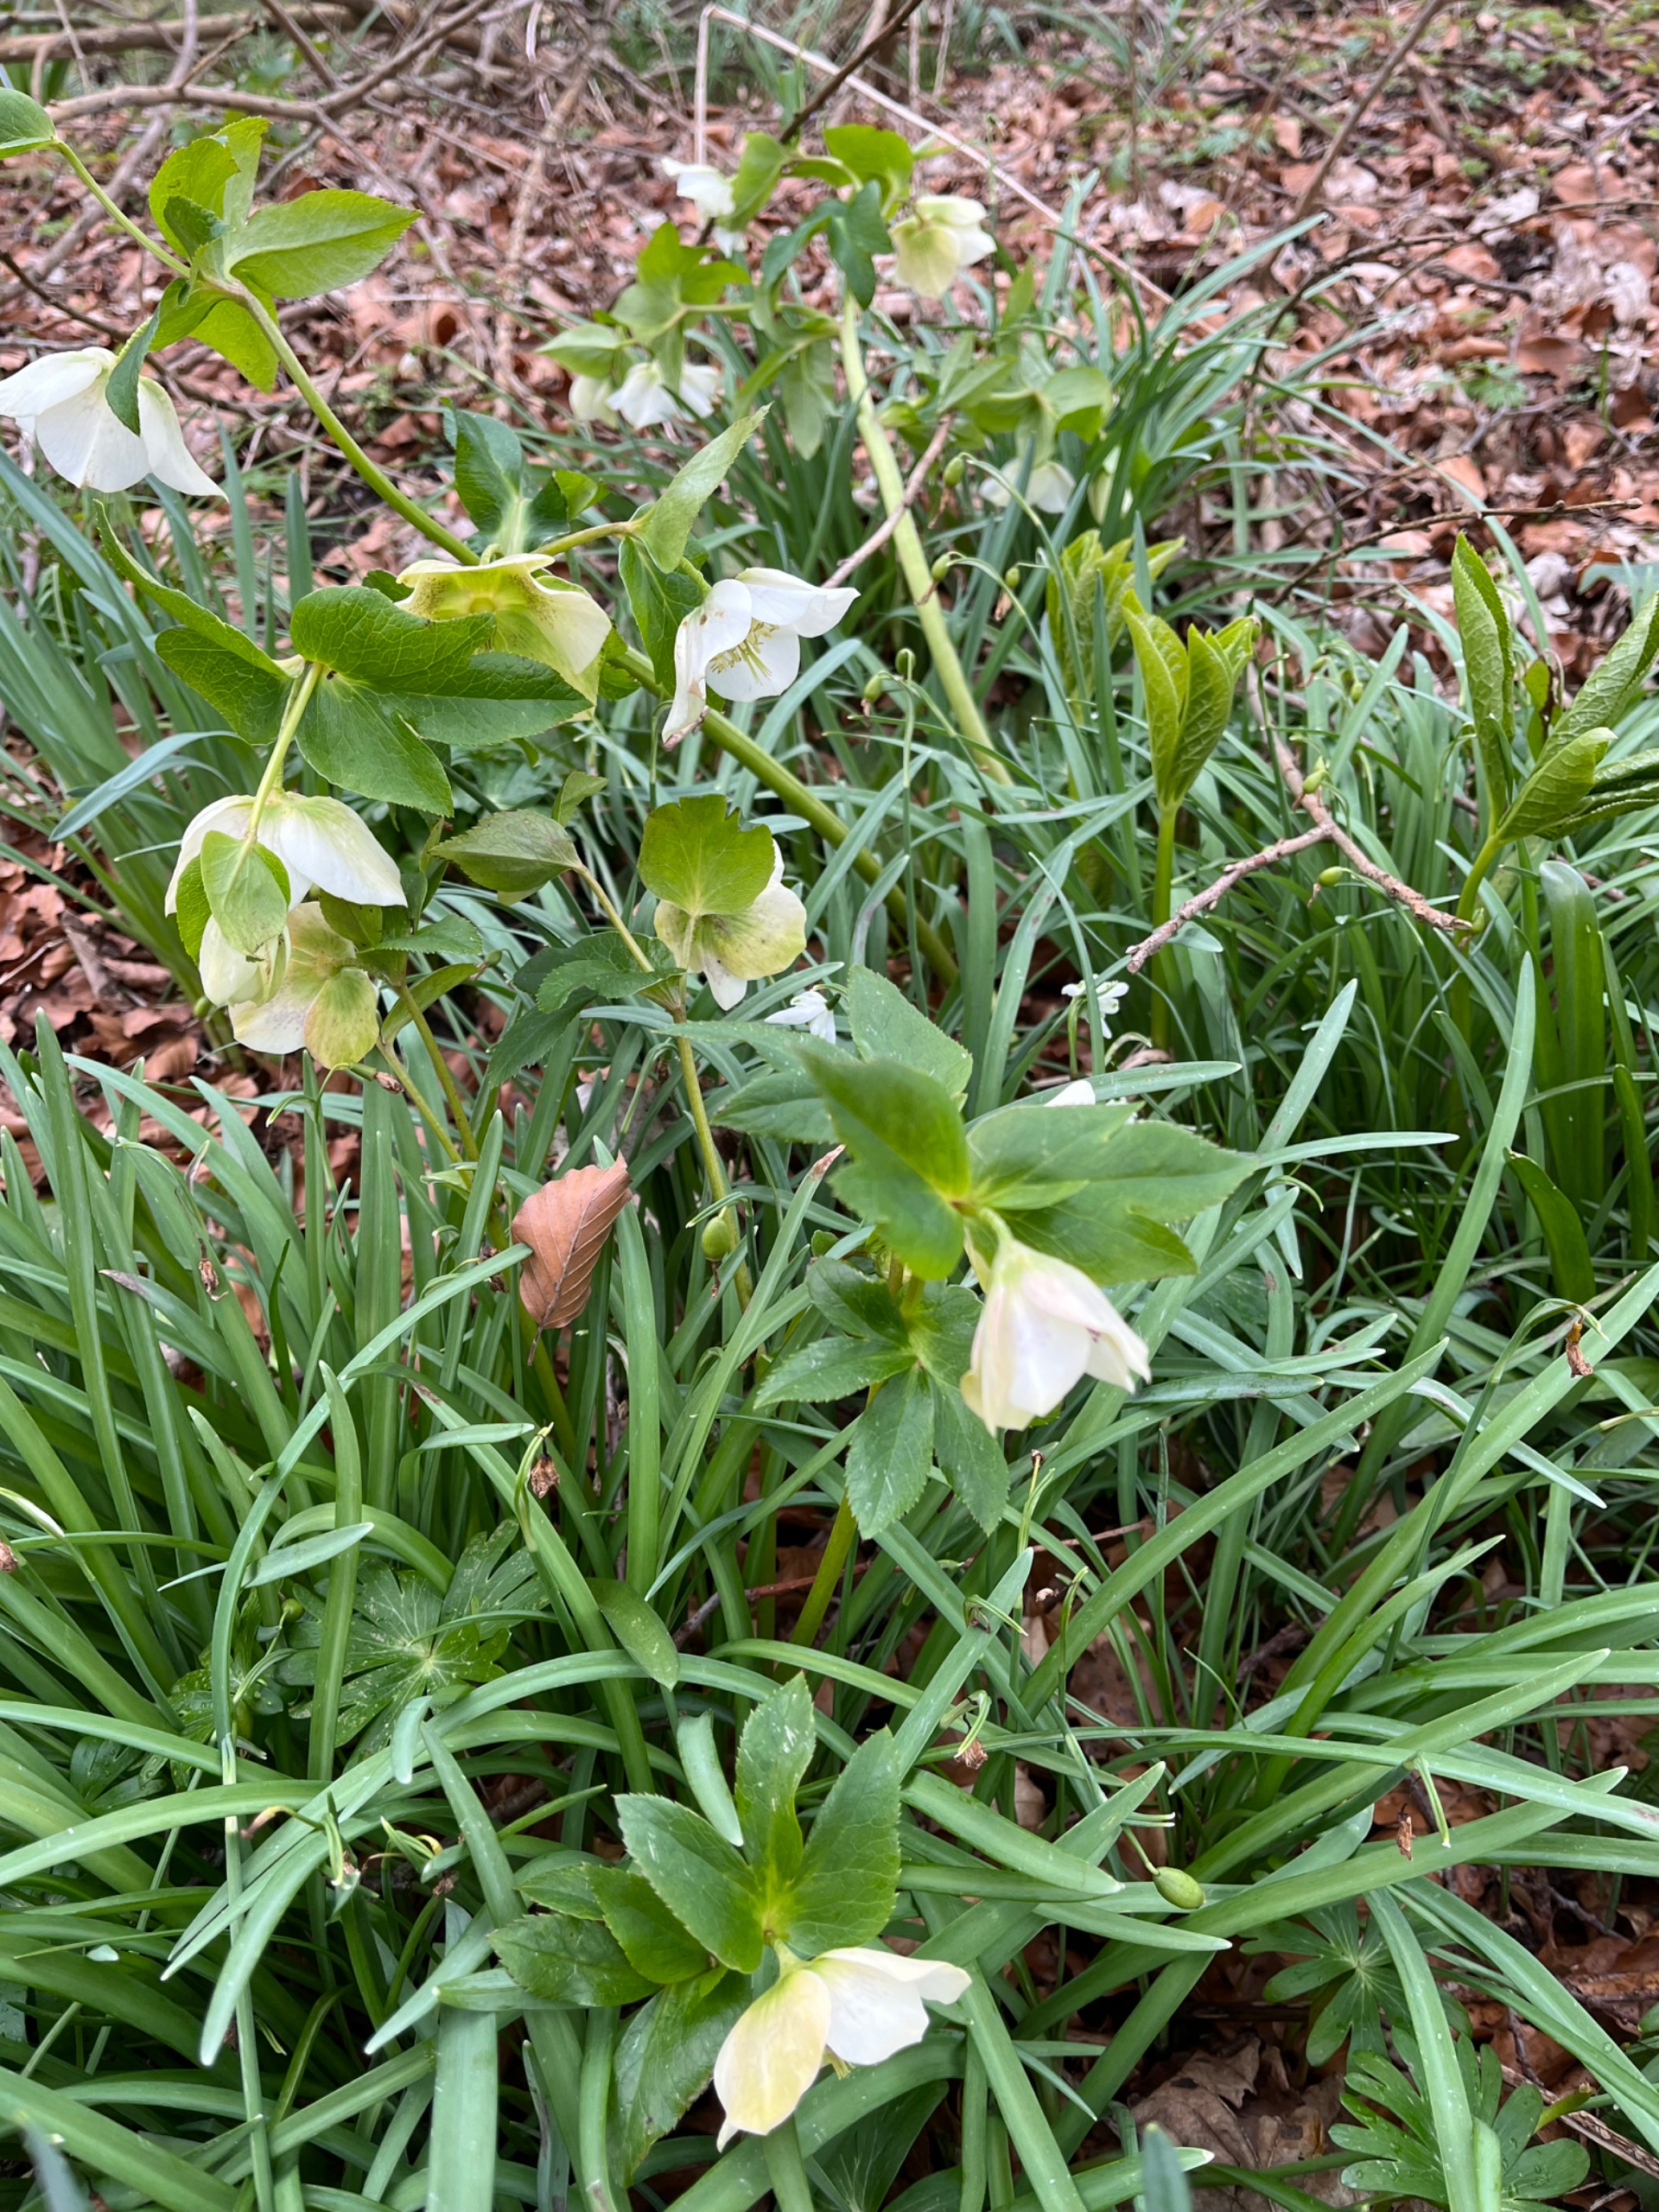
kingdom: Plantae
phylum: Tracheophyta
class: Magnoliopsida
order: Ranunculales
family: Ranunculaceae
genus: Helleborus
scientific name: Helleborus orientalis
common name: Plettet påskeklokke
